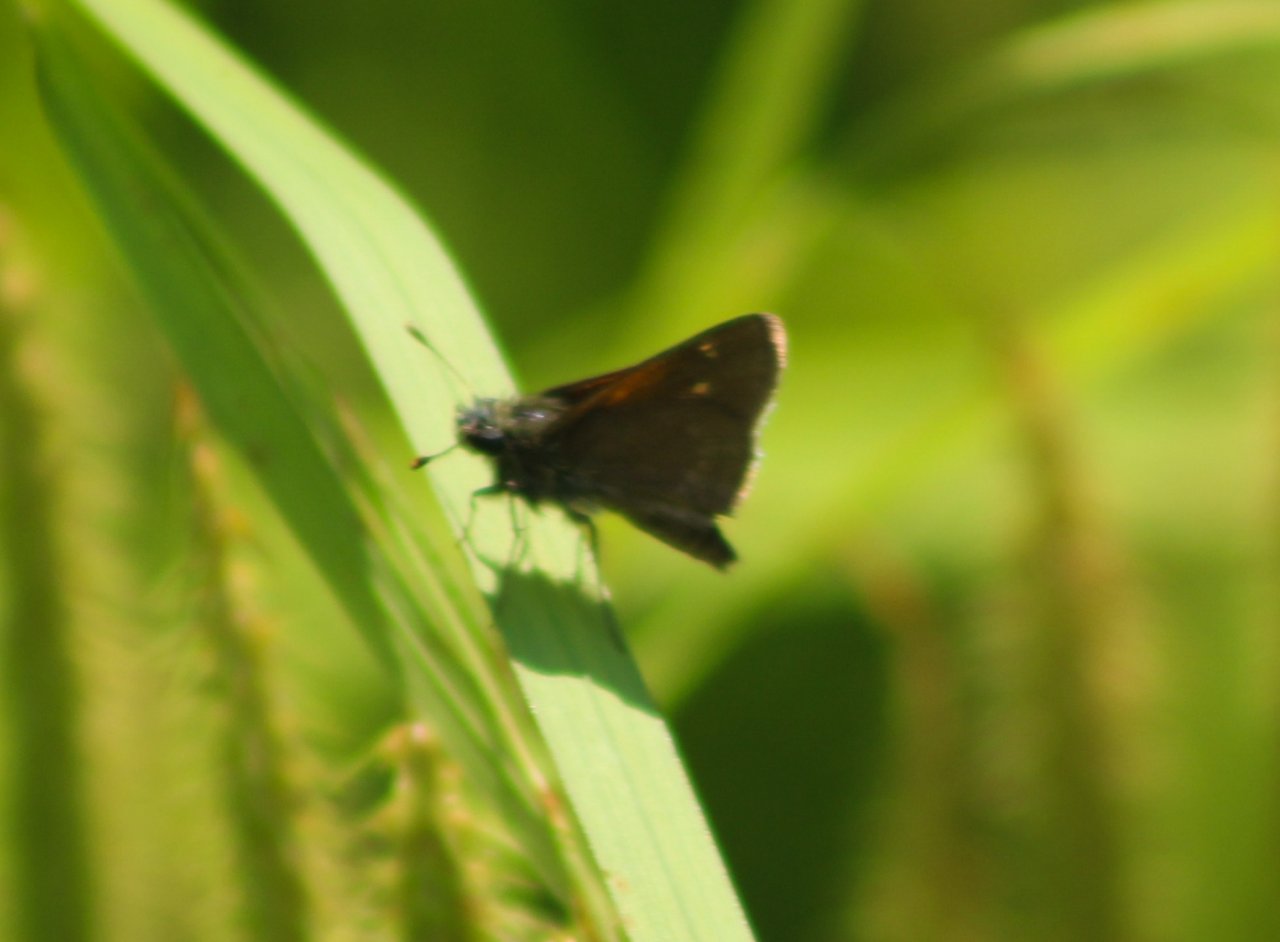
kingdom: Animalia
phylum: Arthropoda
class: Insecta
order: Lepidoptera
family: Hesperiidae
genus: Polites
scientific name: Polites themistocles
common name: Tawny-edged Skipper
